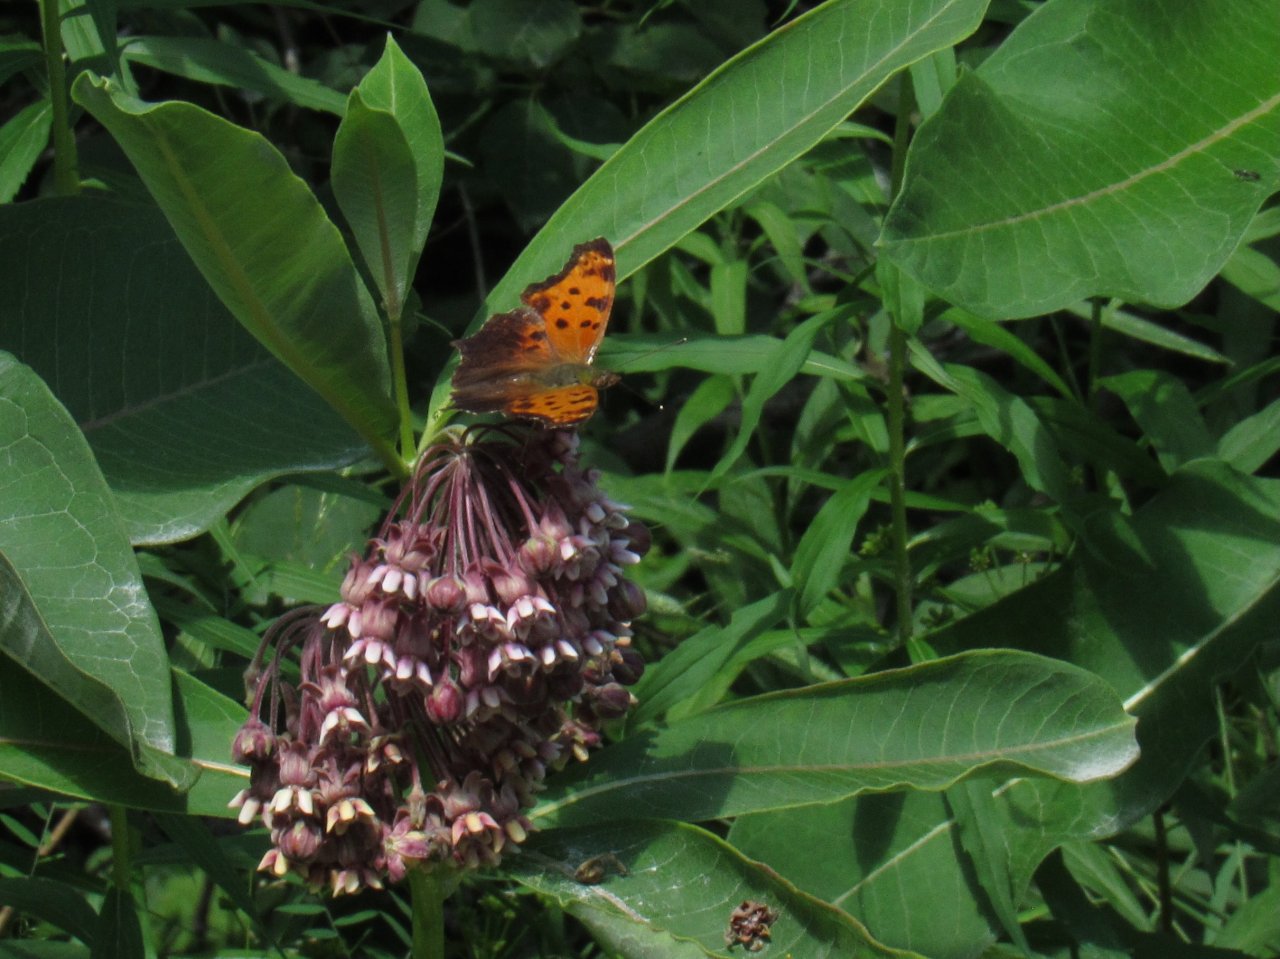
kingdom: Animalia
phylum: Arthropoda
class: Insecta
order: Lepidoptera
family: Nymphalidae
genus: Polygonia
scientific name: Polygonia comma
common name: Eastern Comma
